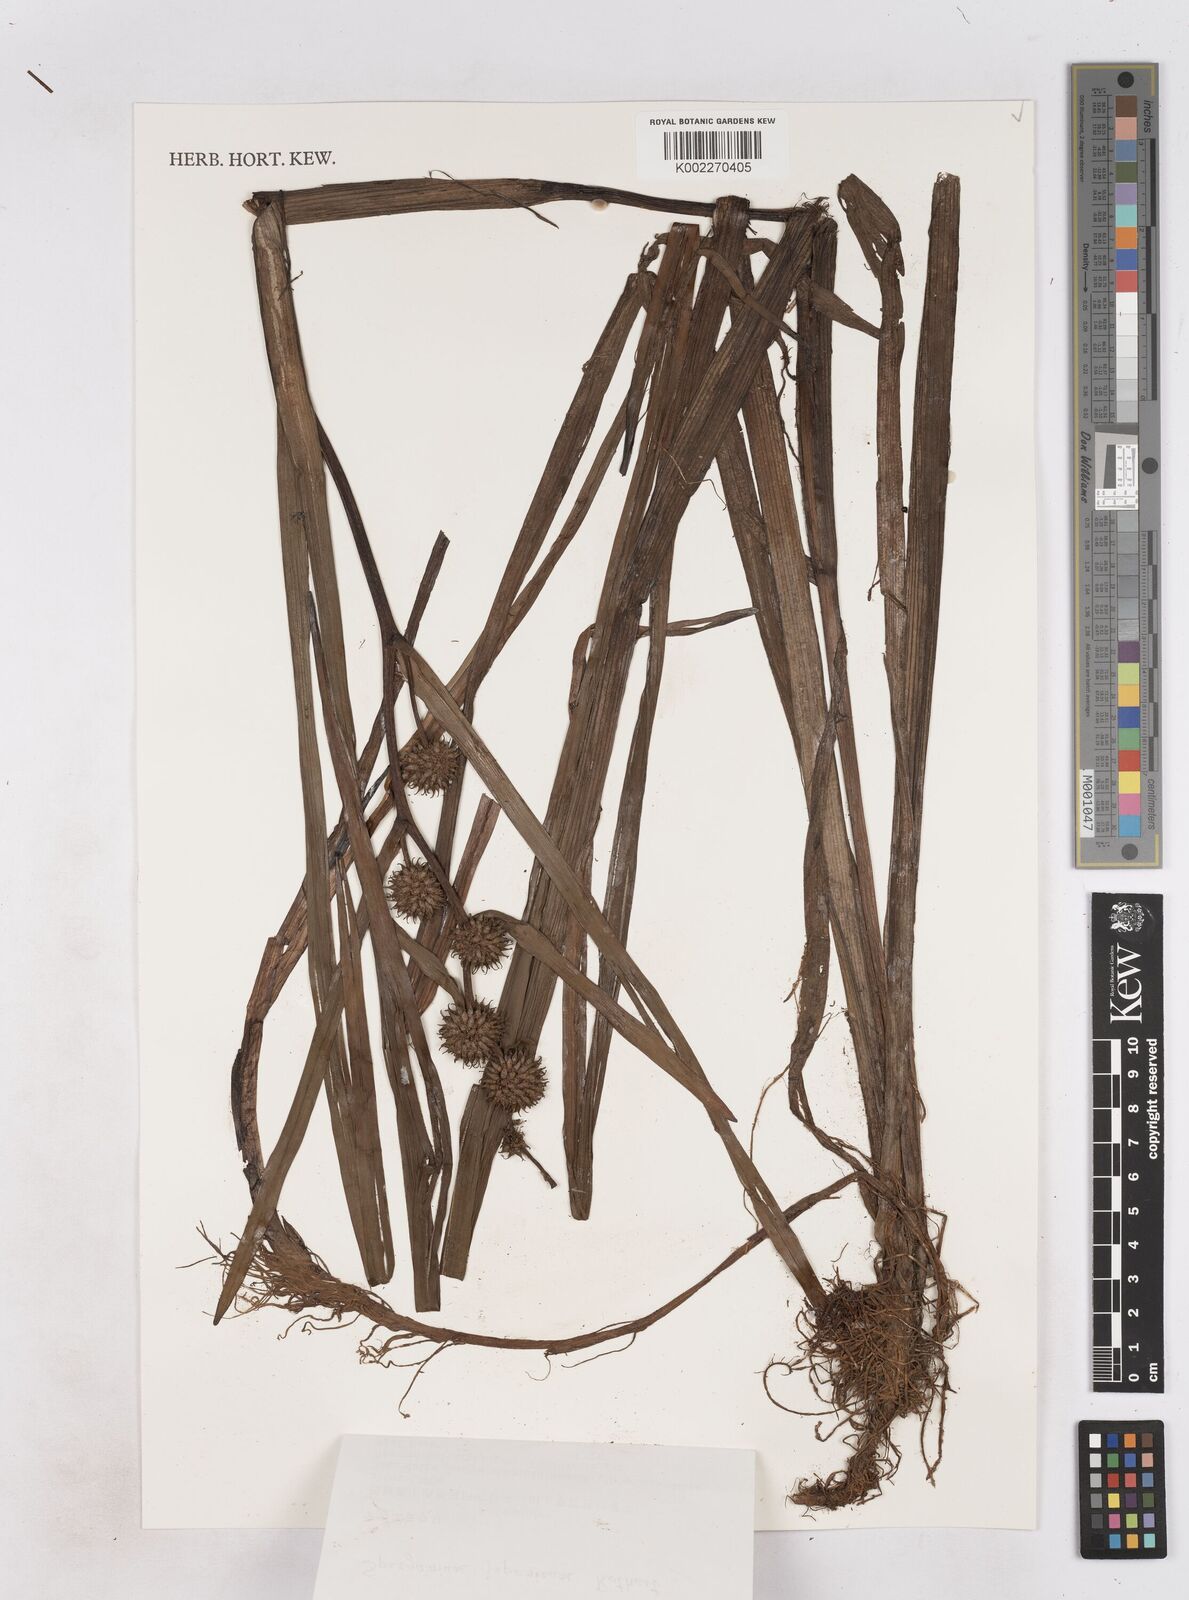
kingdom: Plantae
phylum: Tracheophyta
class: Liliopsida
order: Poales
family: Typhaceae
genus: Sparganium
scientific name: Sparganium japonicum
